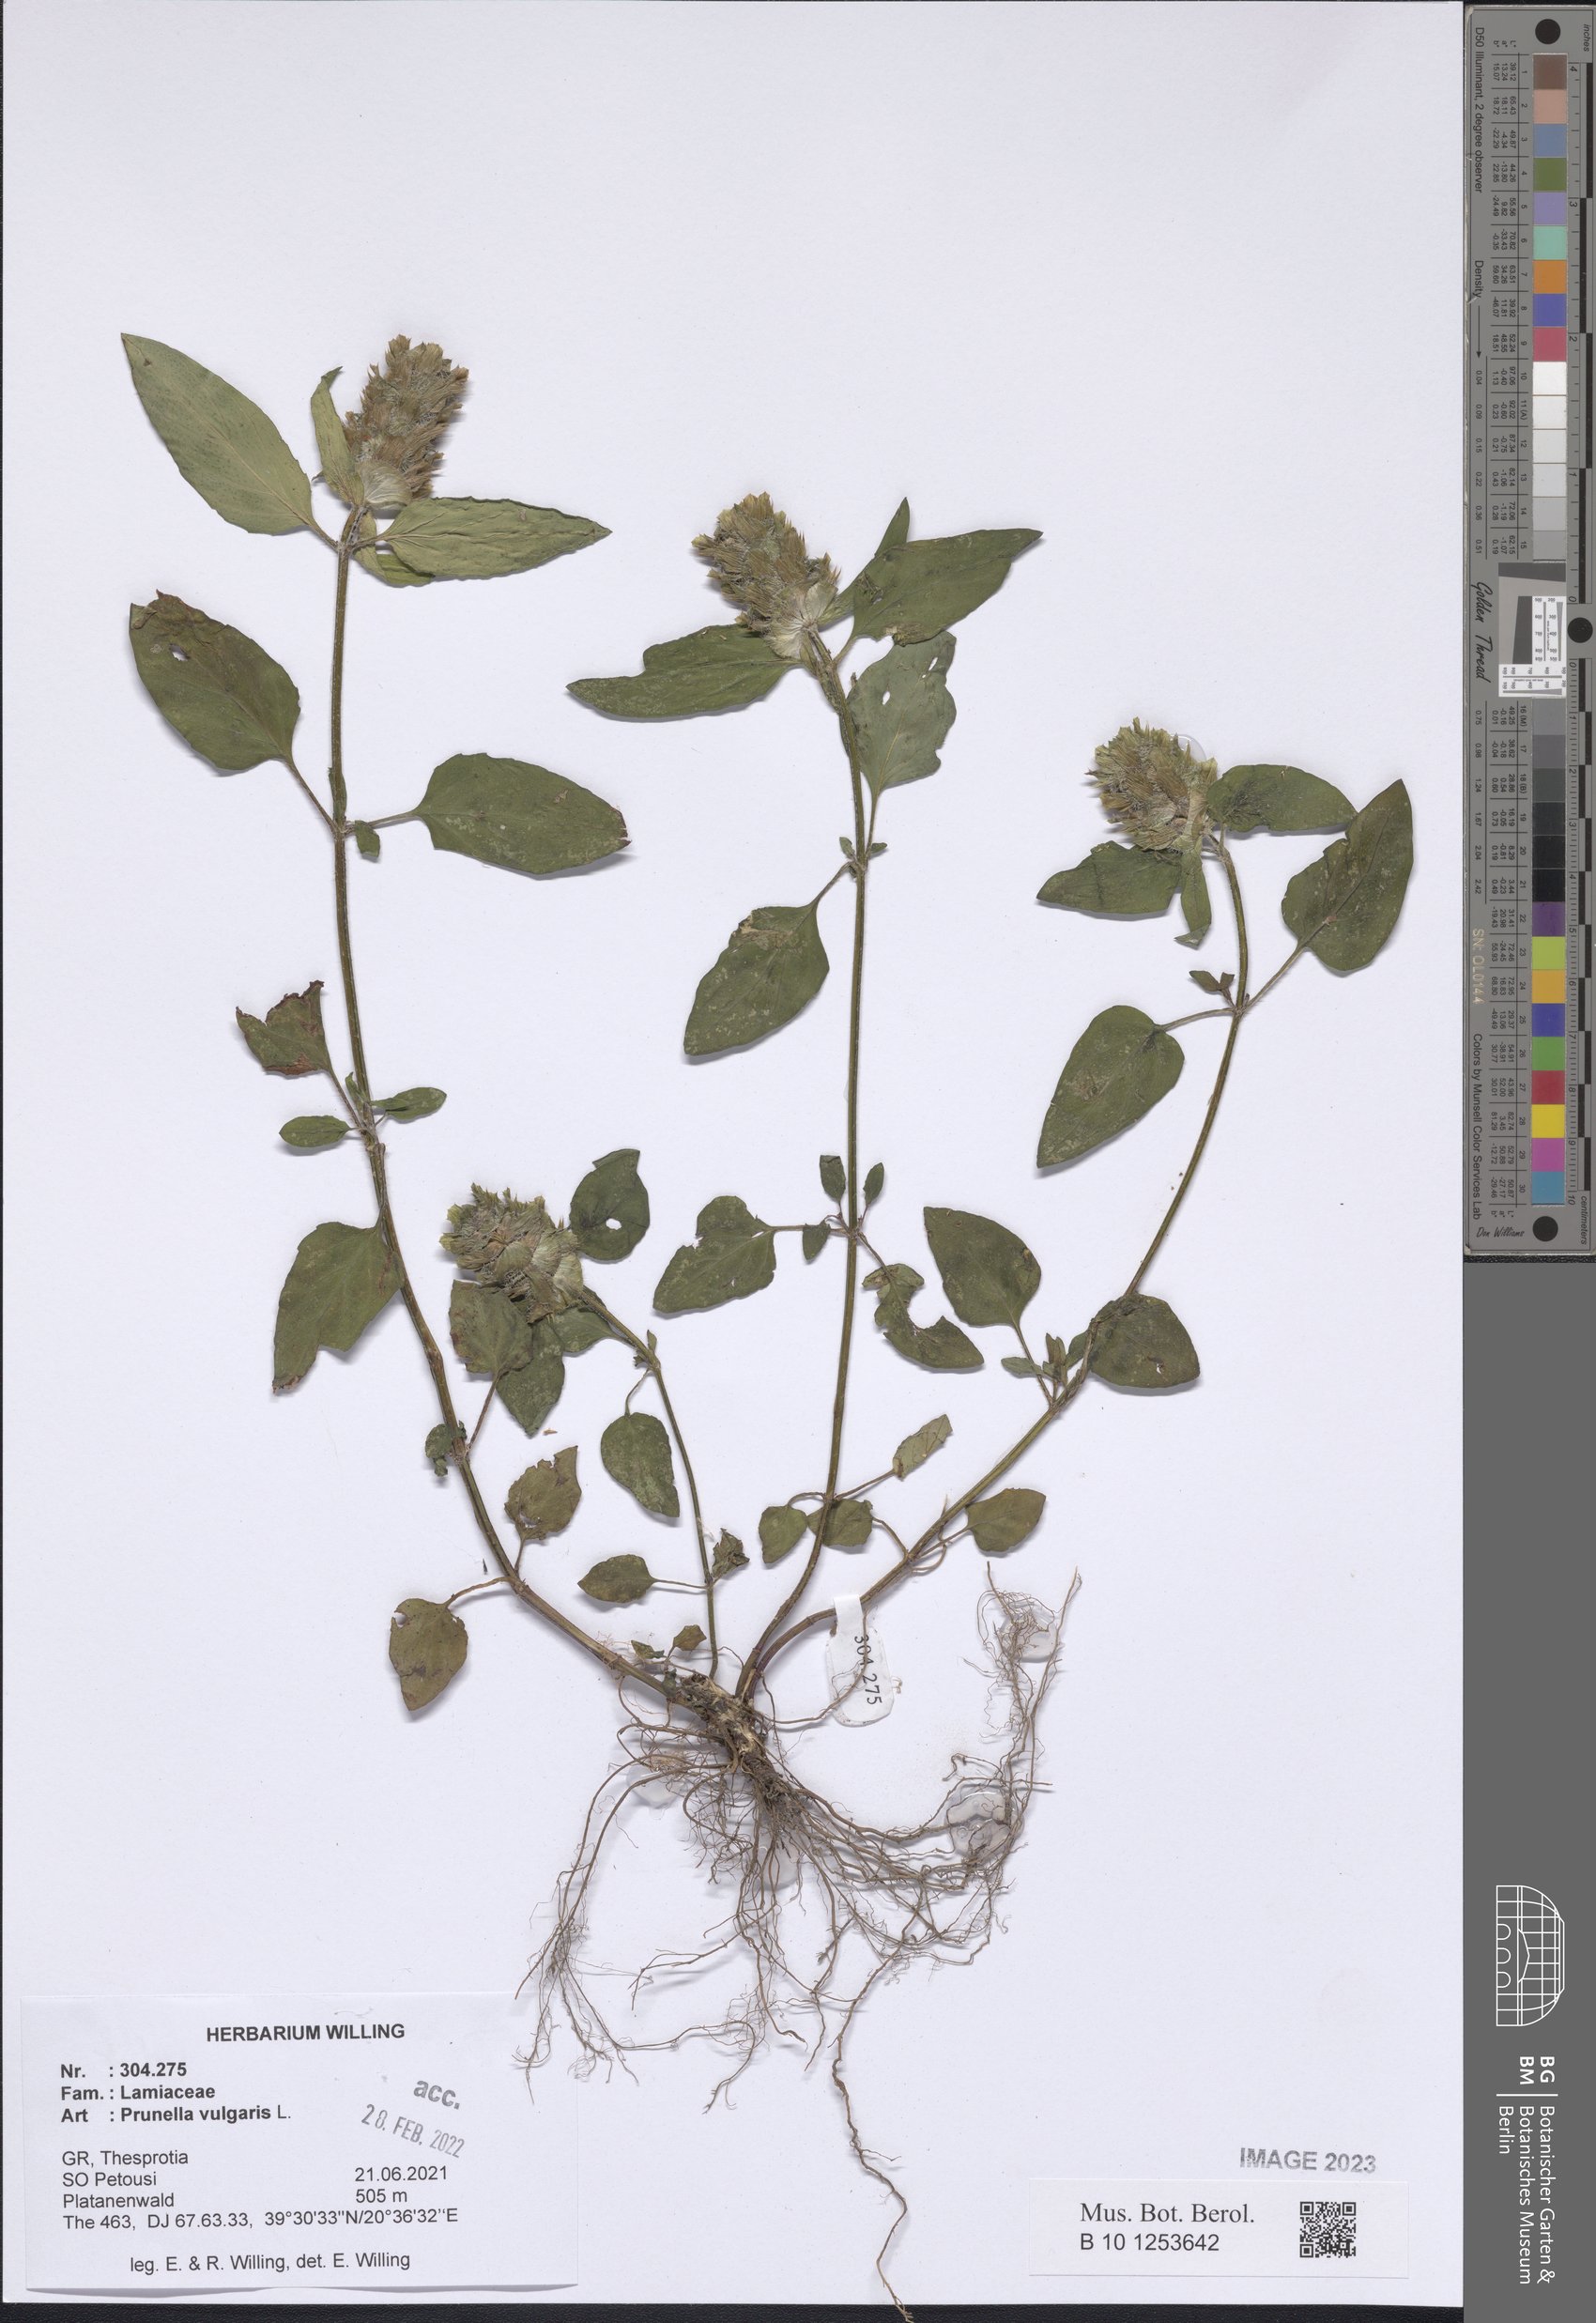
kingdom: Plantae
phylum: Tracheophyta
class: Magnoliopsida
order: Lamiales
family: Lamiaceae
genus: Prunella
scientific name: Prunella vulgaris
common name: Heal-all
